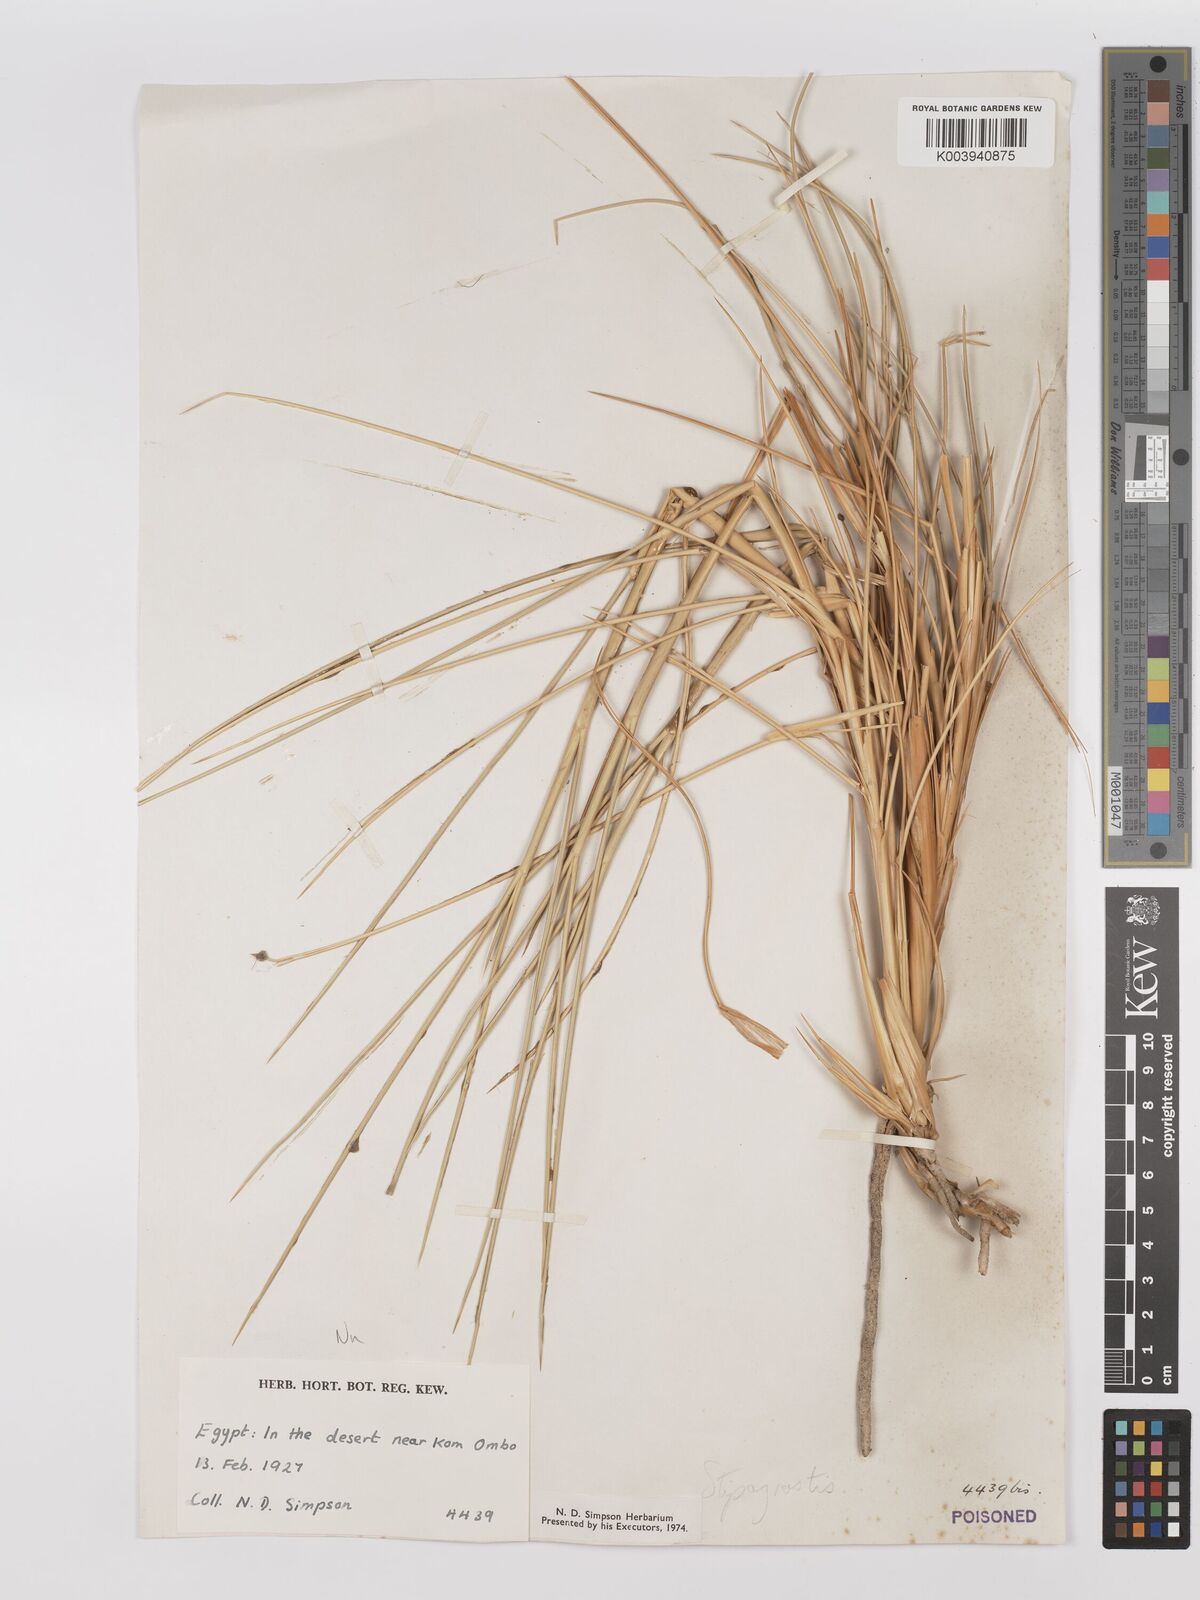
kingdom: Plantae
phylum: Tracheophyta
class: Liliopsida
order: Poales
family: Poaceae
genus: Stipagrostis
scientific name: Stipagrostis vulnerans
